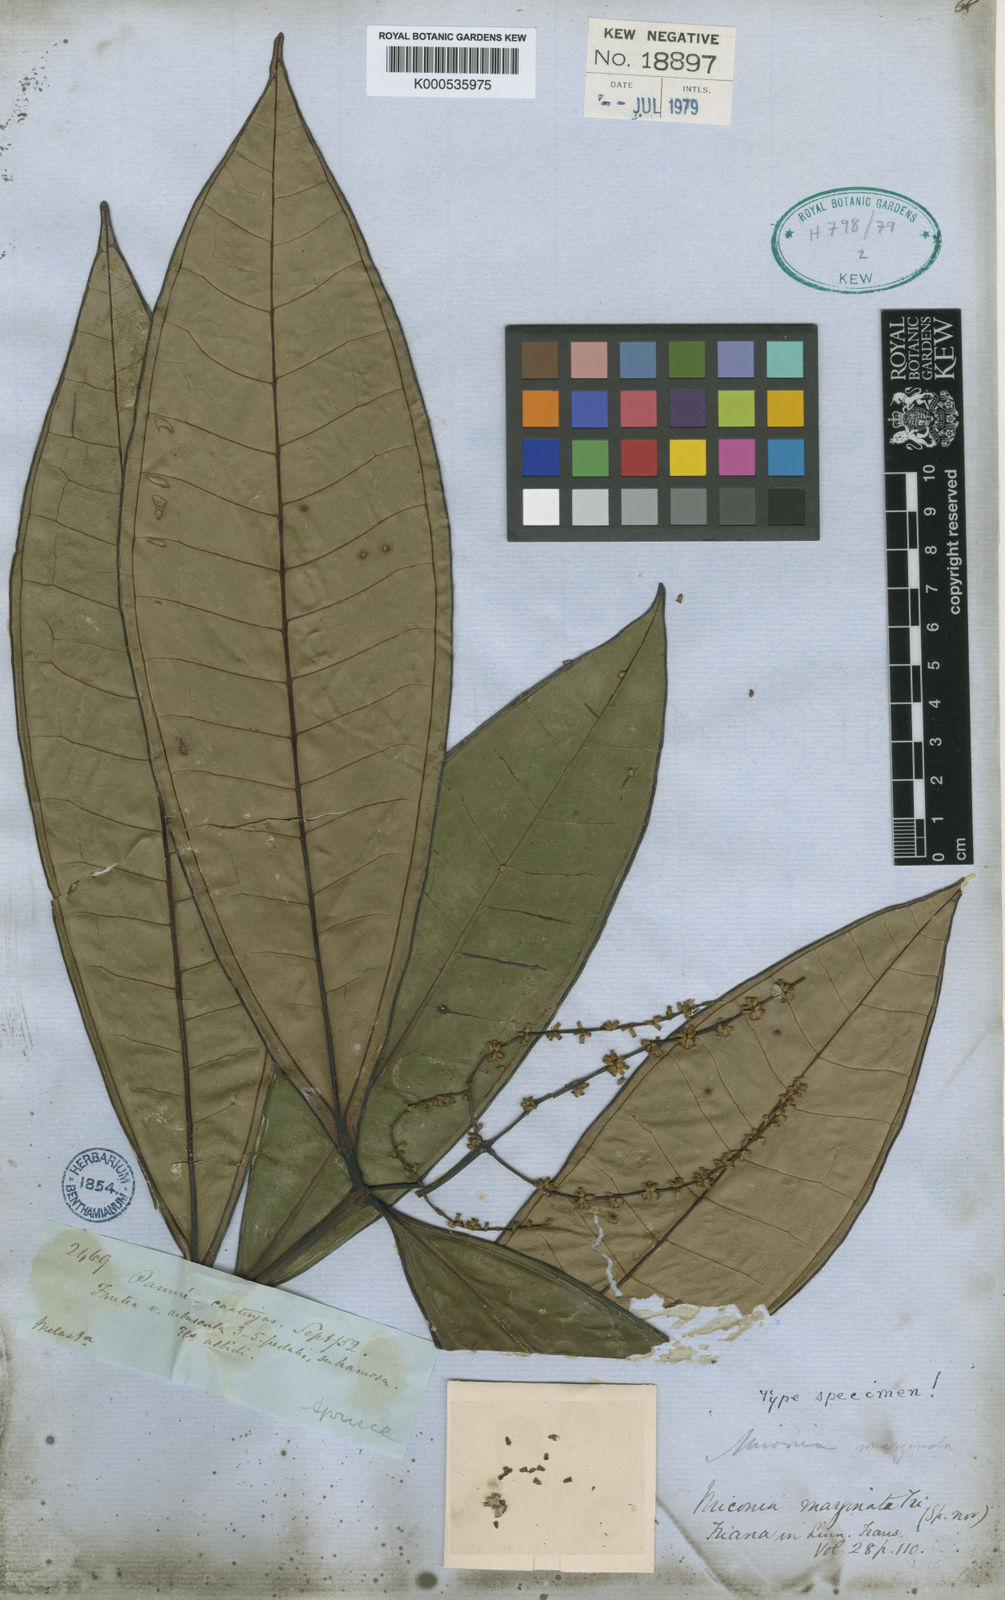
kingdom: Plantae
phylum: Tracheophyta
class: Magnoliopsida
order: Myrtales
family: Melastomataceae
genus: Miconia
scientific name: Miconia marginata
